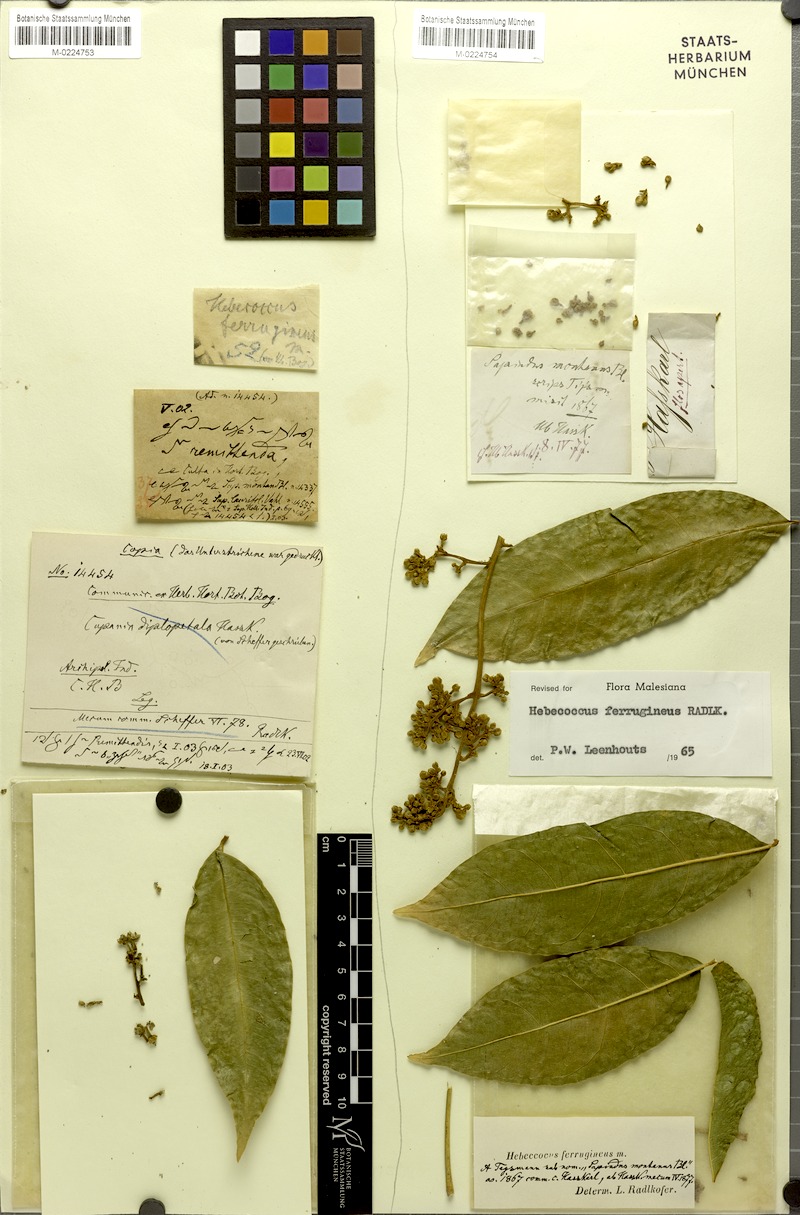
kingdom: Plantae
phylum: Tracheophyta
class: Magnoliopsida
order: Sapindales
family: Sapindaceae
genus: Lepisanthes
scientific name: Lepisanthes ferruginea
